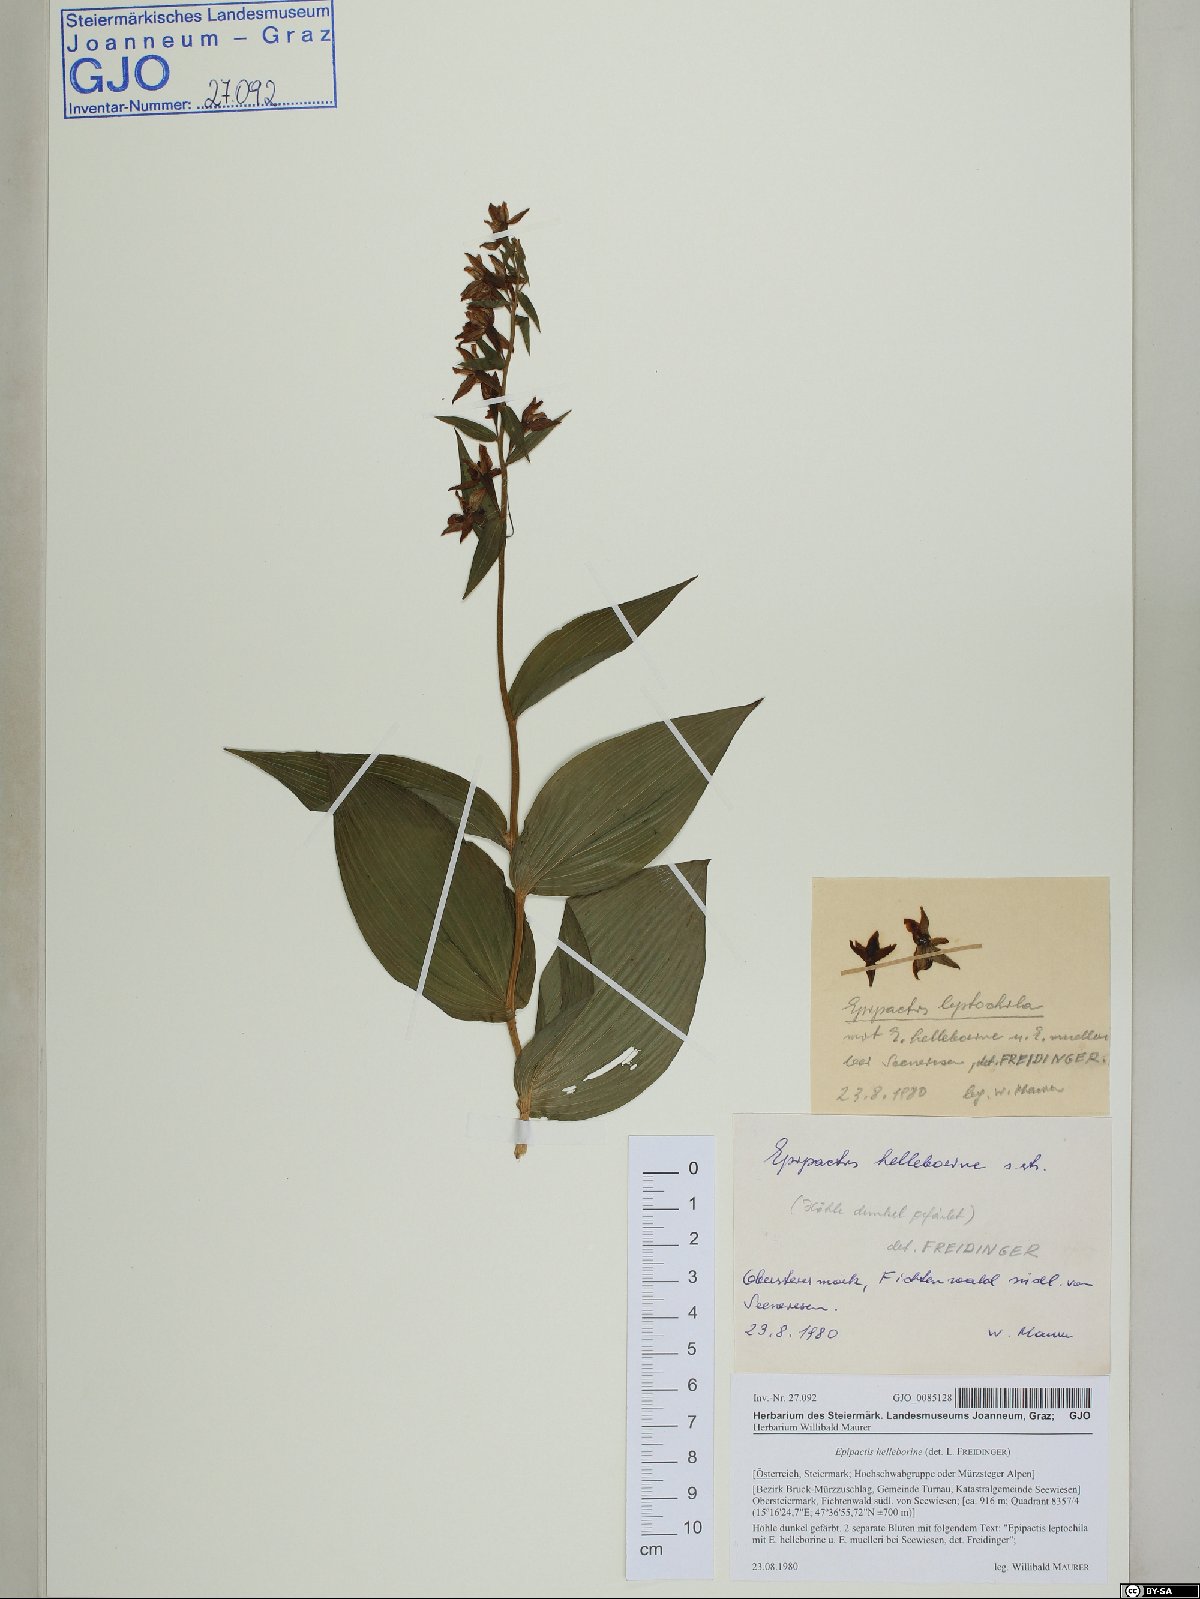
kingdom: Plantae
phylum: Tracheophyta
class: Liliopsida
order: Asparagales
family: Orchidaceae
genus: Epipactis
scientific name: Epipactis helleborine
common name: Broad-leaved helleborine
